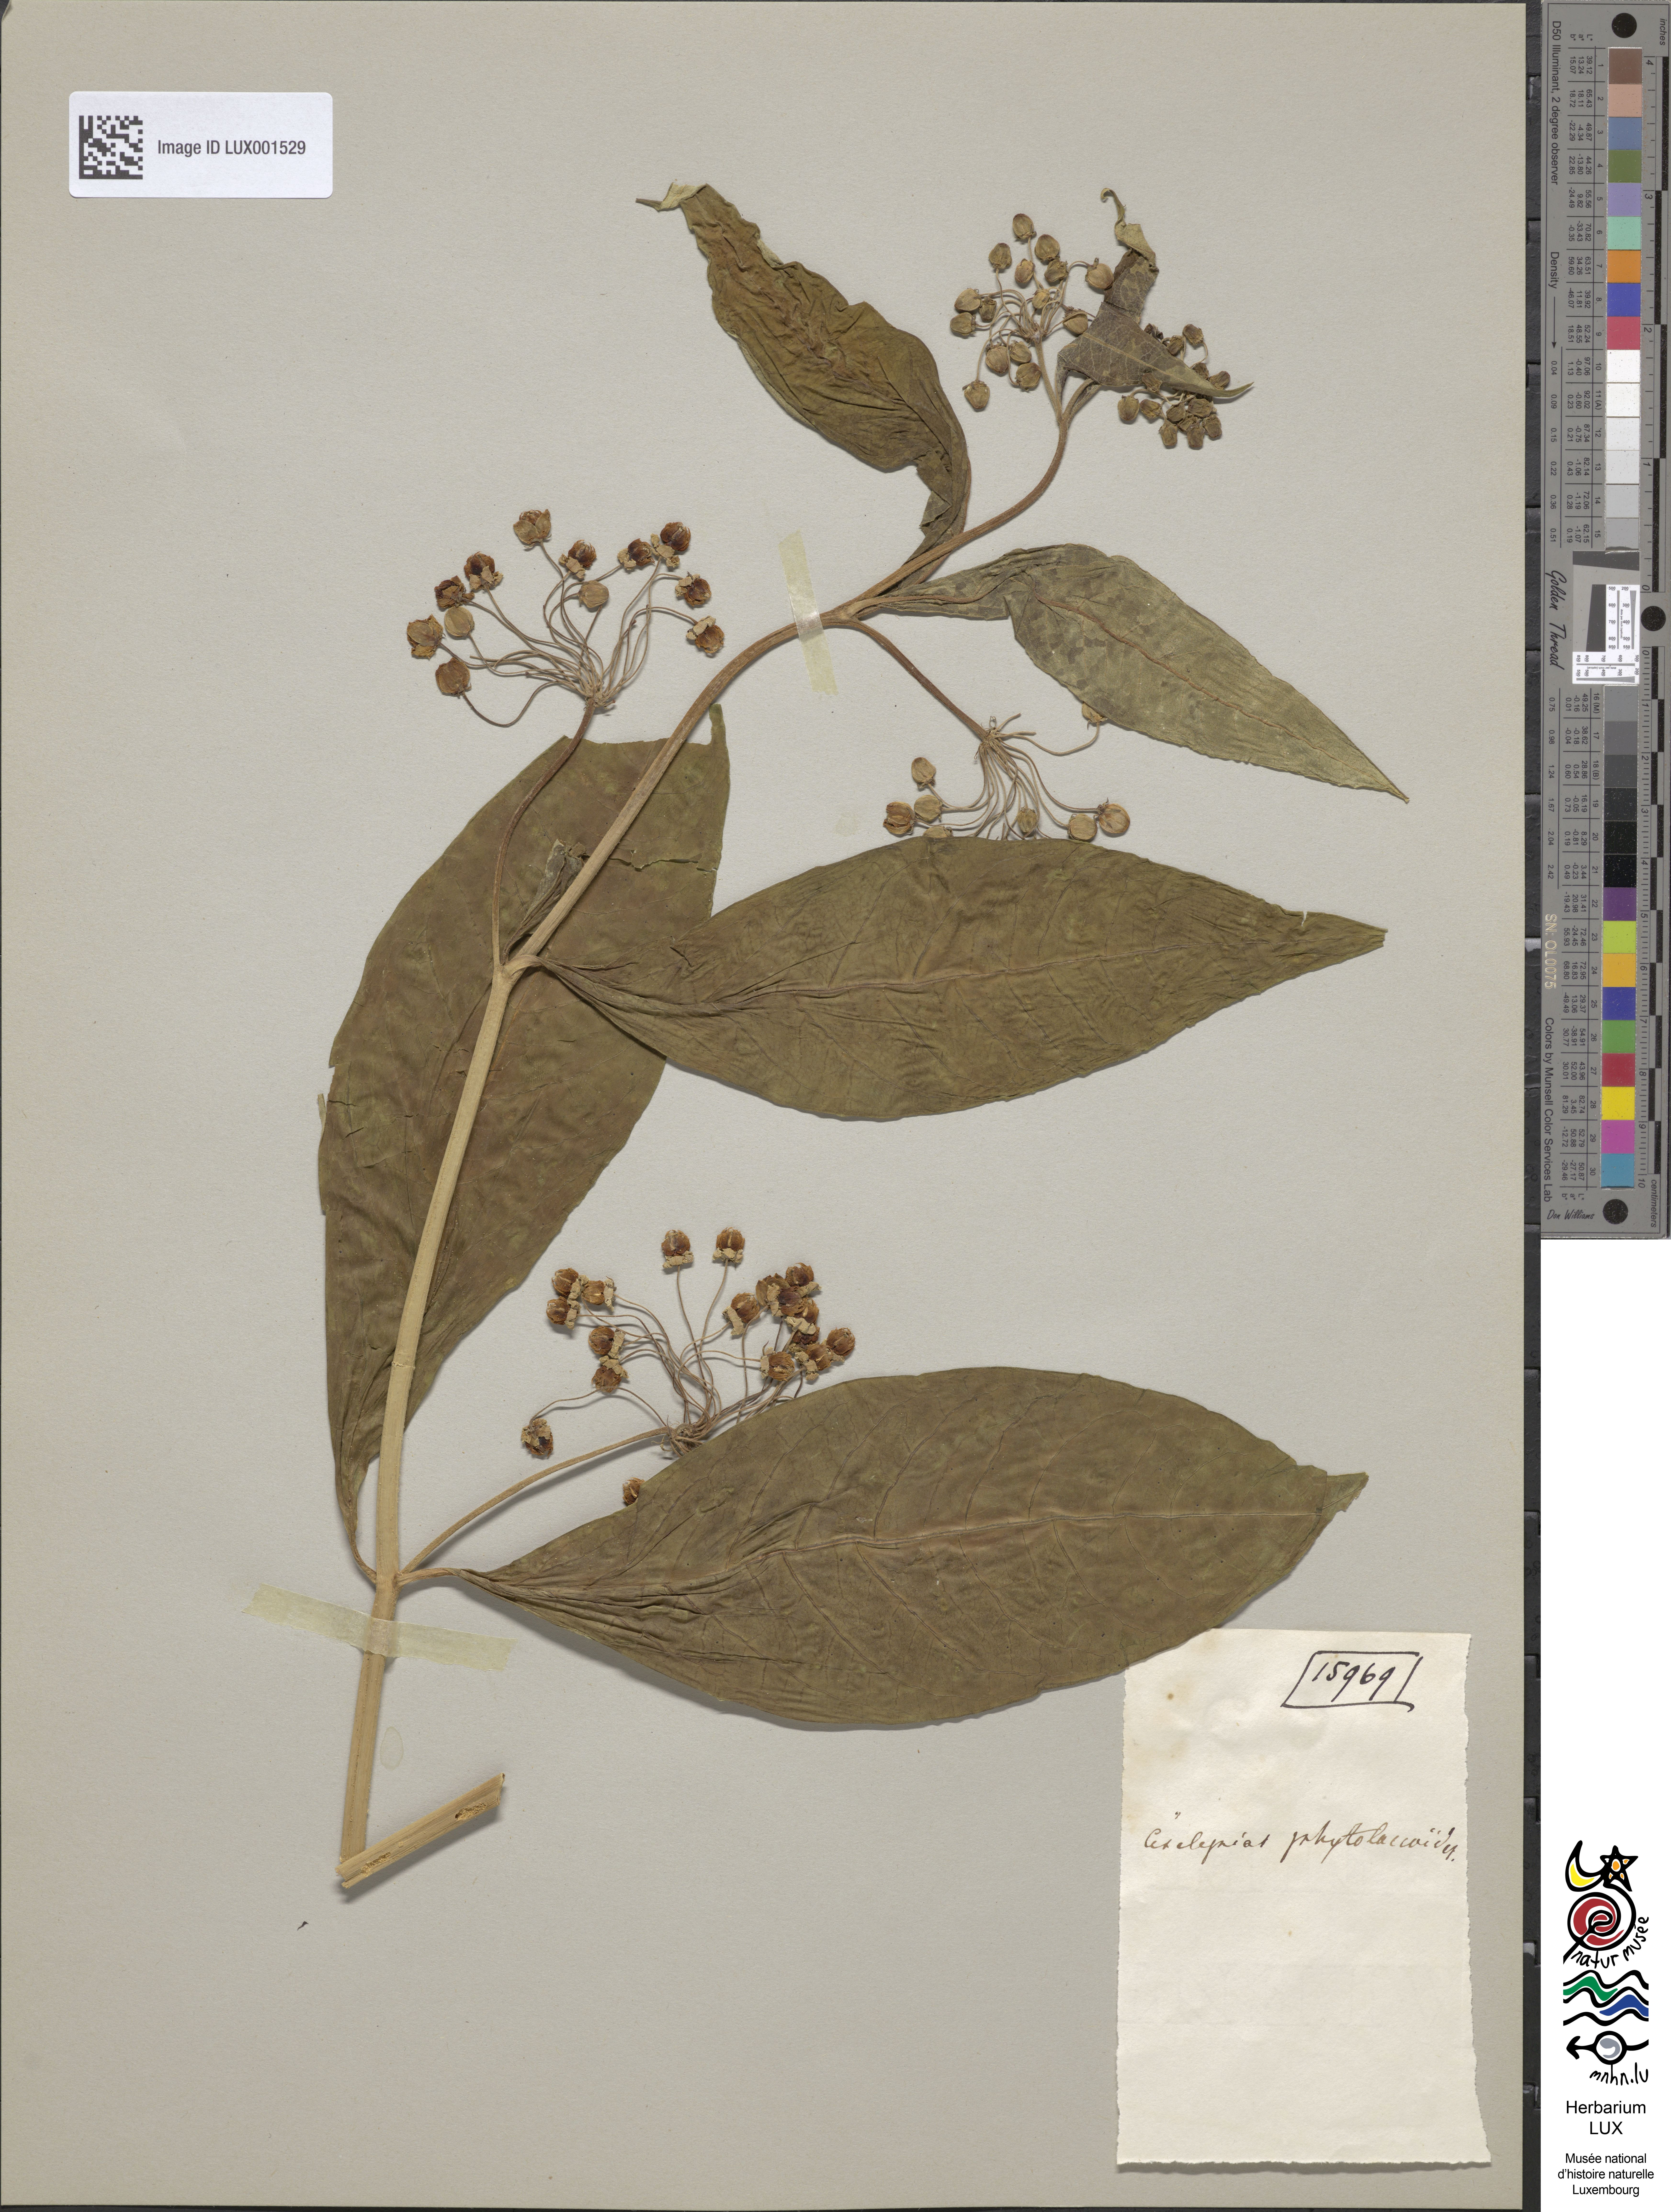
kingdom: Plantae
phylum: Tracheophyta
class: Magnoliopsida
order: Gentianales
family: Apocynaceae
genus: Asclepias
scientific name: Asclepias exaltata
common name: Poke milkweed
